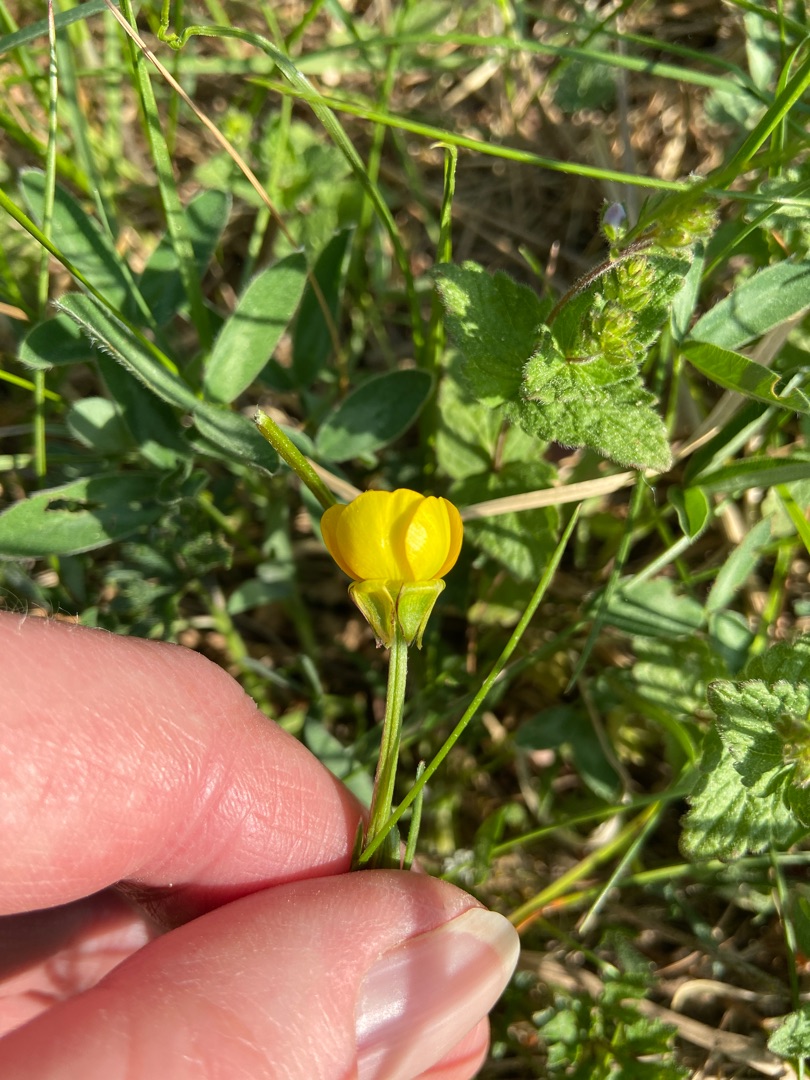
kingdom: Plantae
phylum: Tracheophyta
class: Magnoliopsida
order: Ranunculales
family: Ranunculaceae
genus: Ranunculus
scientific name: Ranunculus bulbosus
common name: Knold-ranunkel
